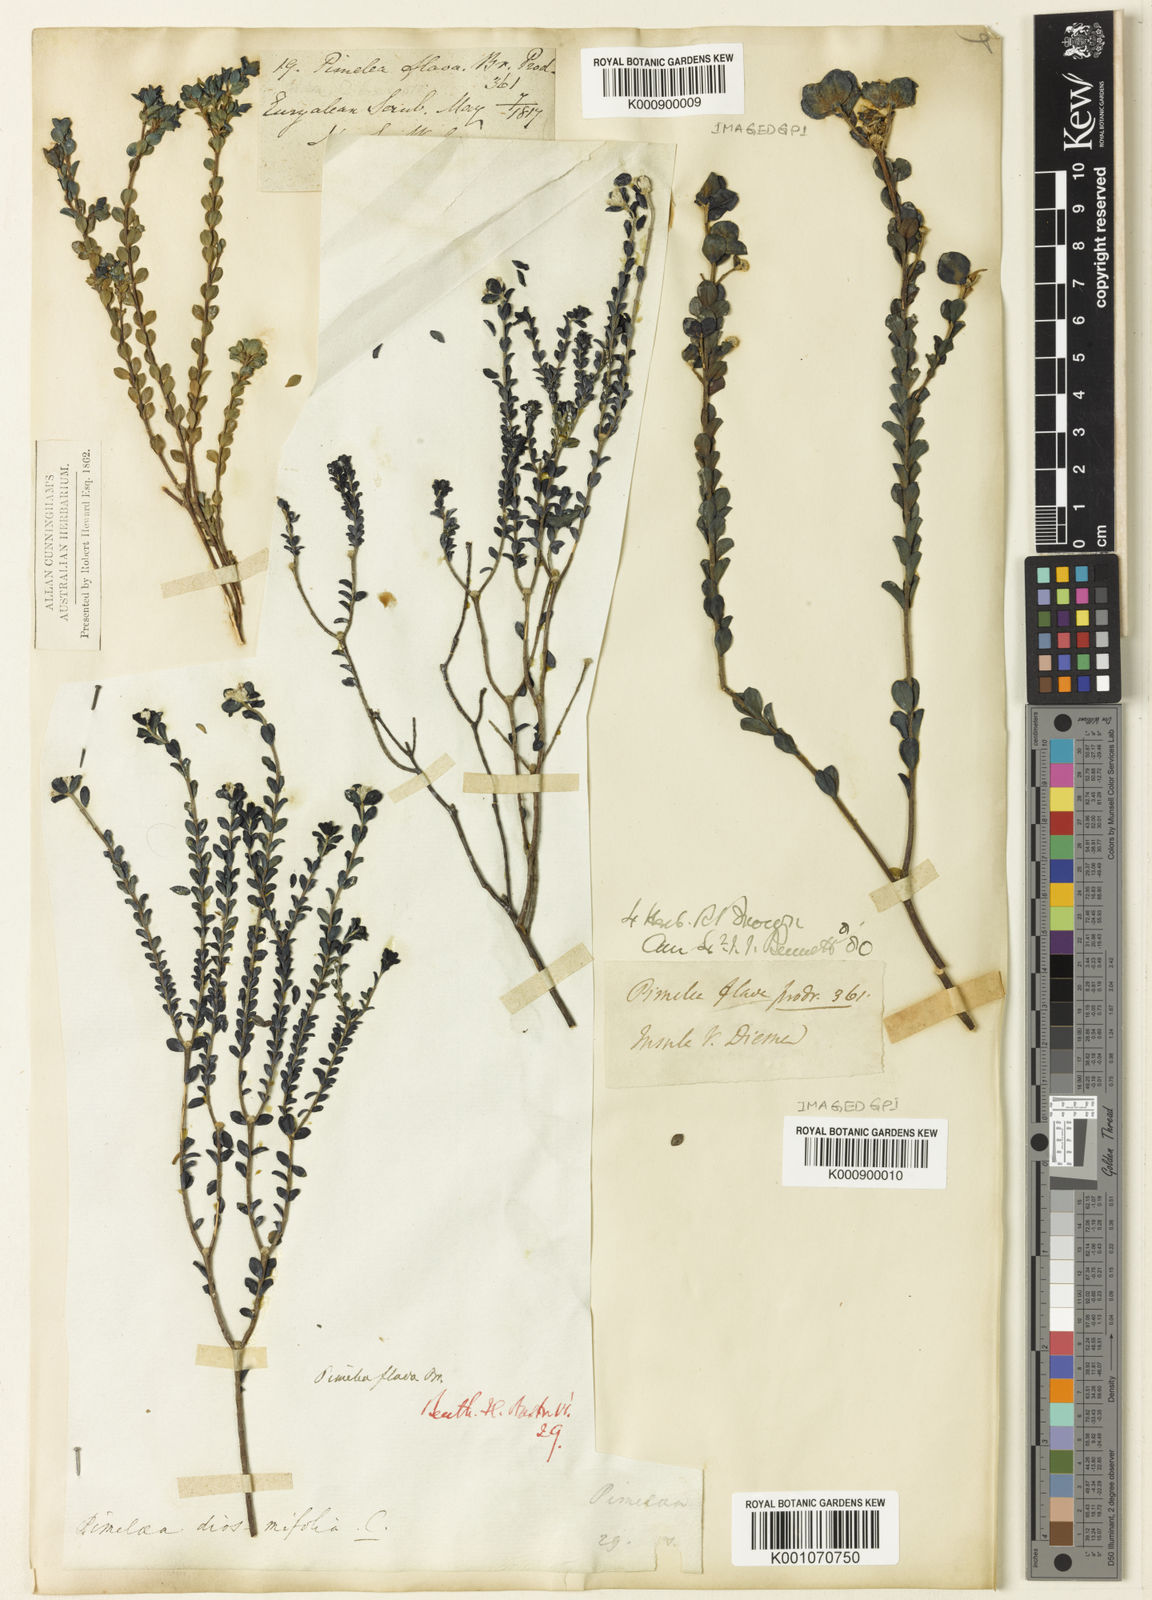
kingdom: Plantae
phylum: Tracheophyta
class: Magnoliopsida
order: Malvales
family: Thymelaeaceae
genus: Pimelea
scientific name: Pimelea flava
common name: Yellow riceflower
